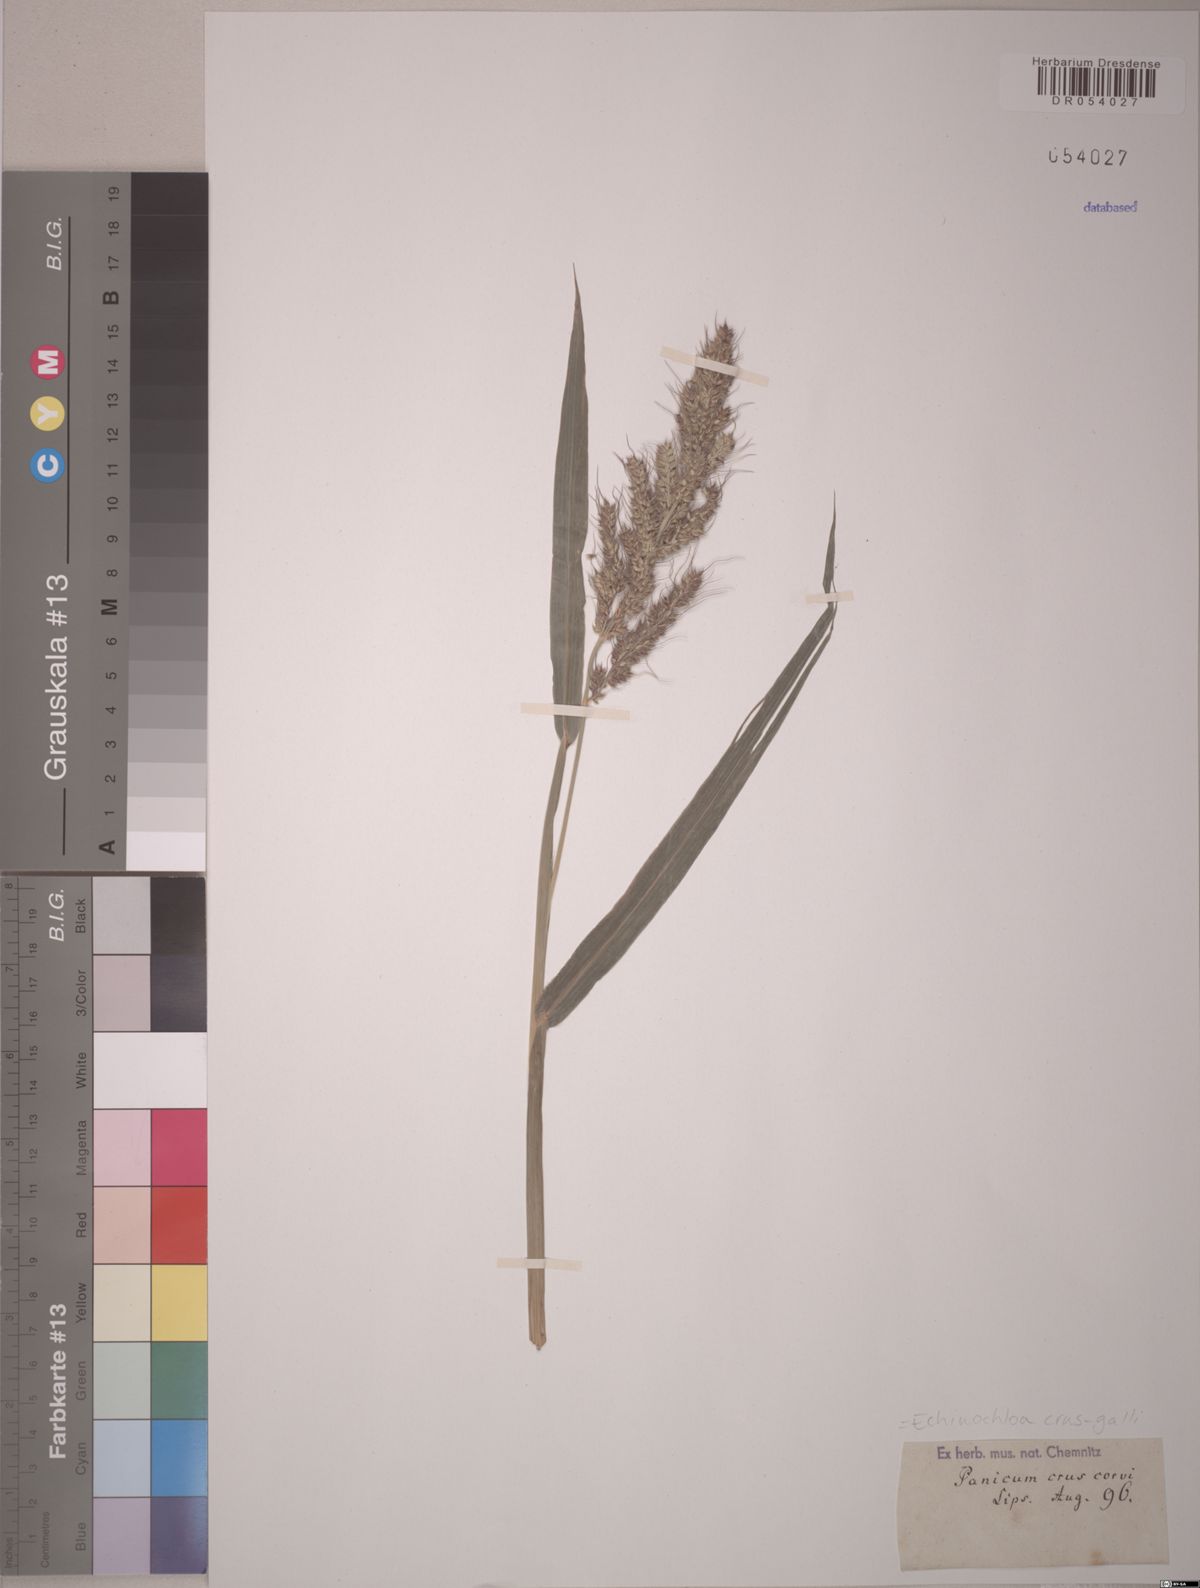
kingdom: Plantae
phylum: Tracheophyta
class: Liliopsida
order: Poales
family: Poaceae
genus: Echinochloa
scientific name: Echinochloa crus-galli
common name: Cockspur
